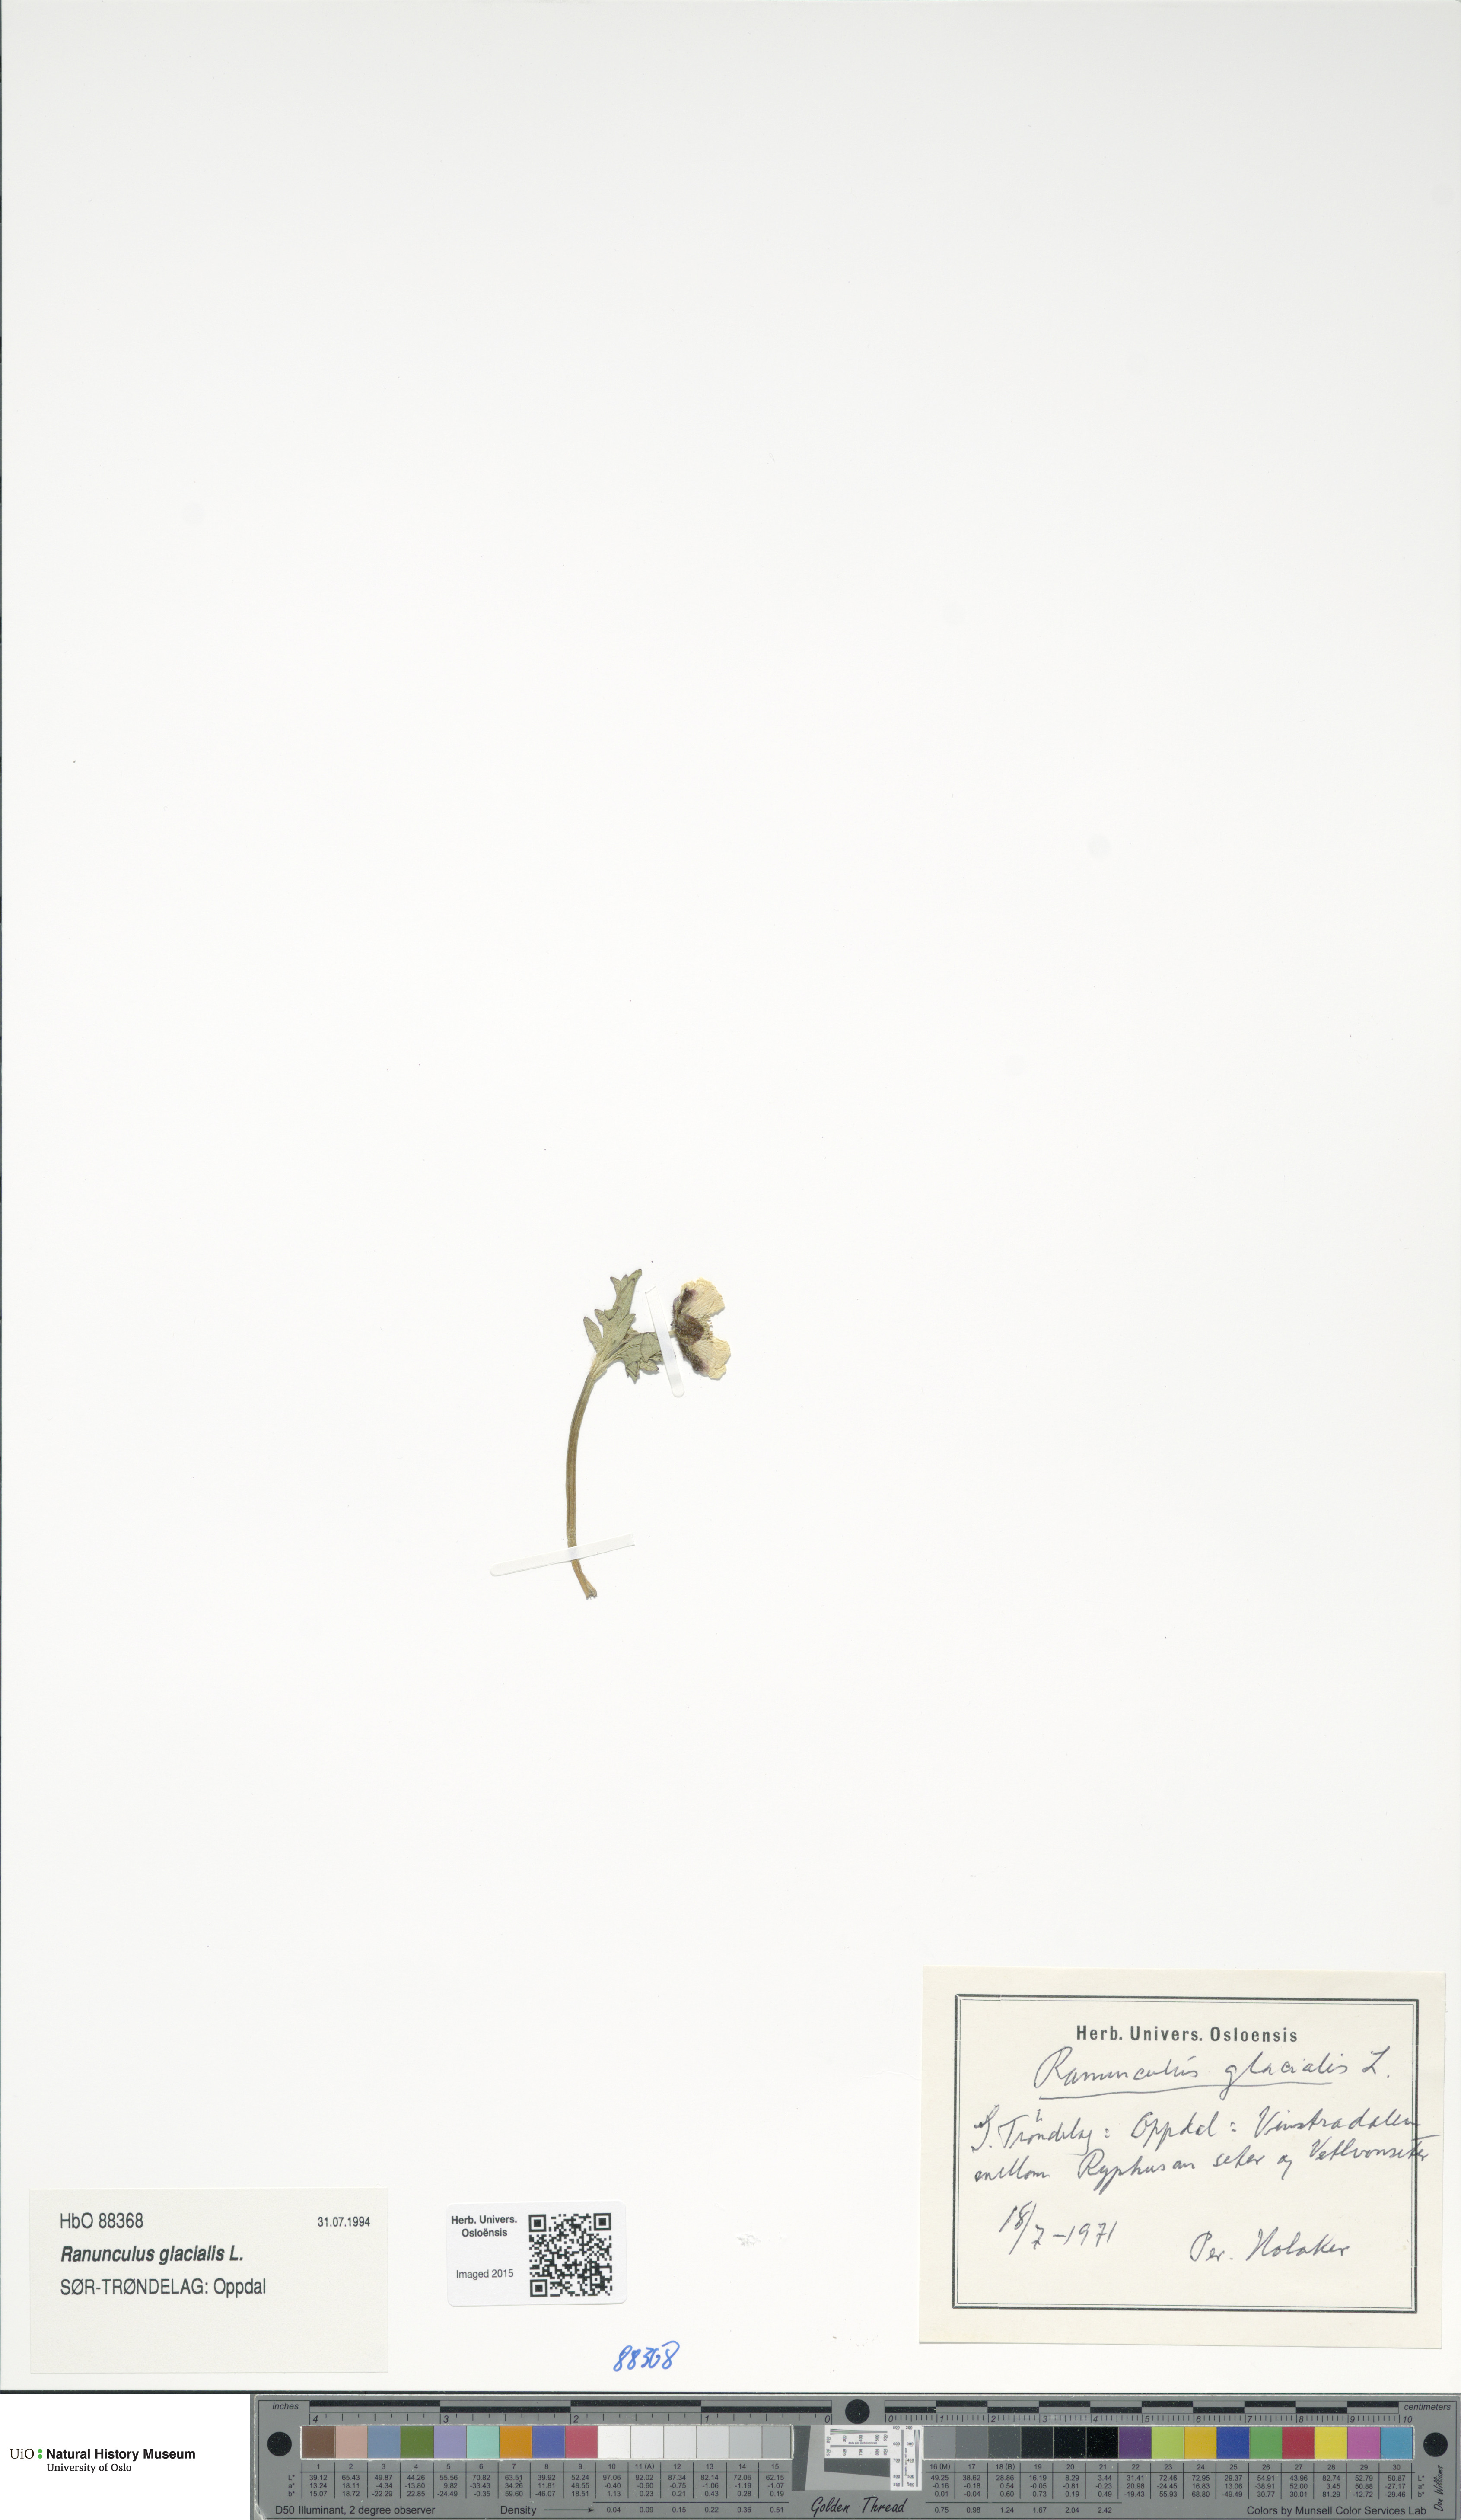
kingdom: Plantae
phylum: Tracheophyta
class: Magnoliopsida
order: Ranunculales
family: Ranunculaceae
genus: Ranunculus
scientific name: Ranunculus glacialis
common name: Glacier buttercup
